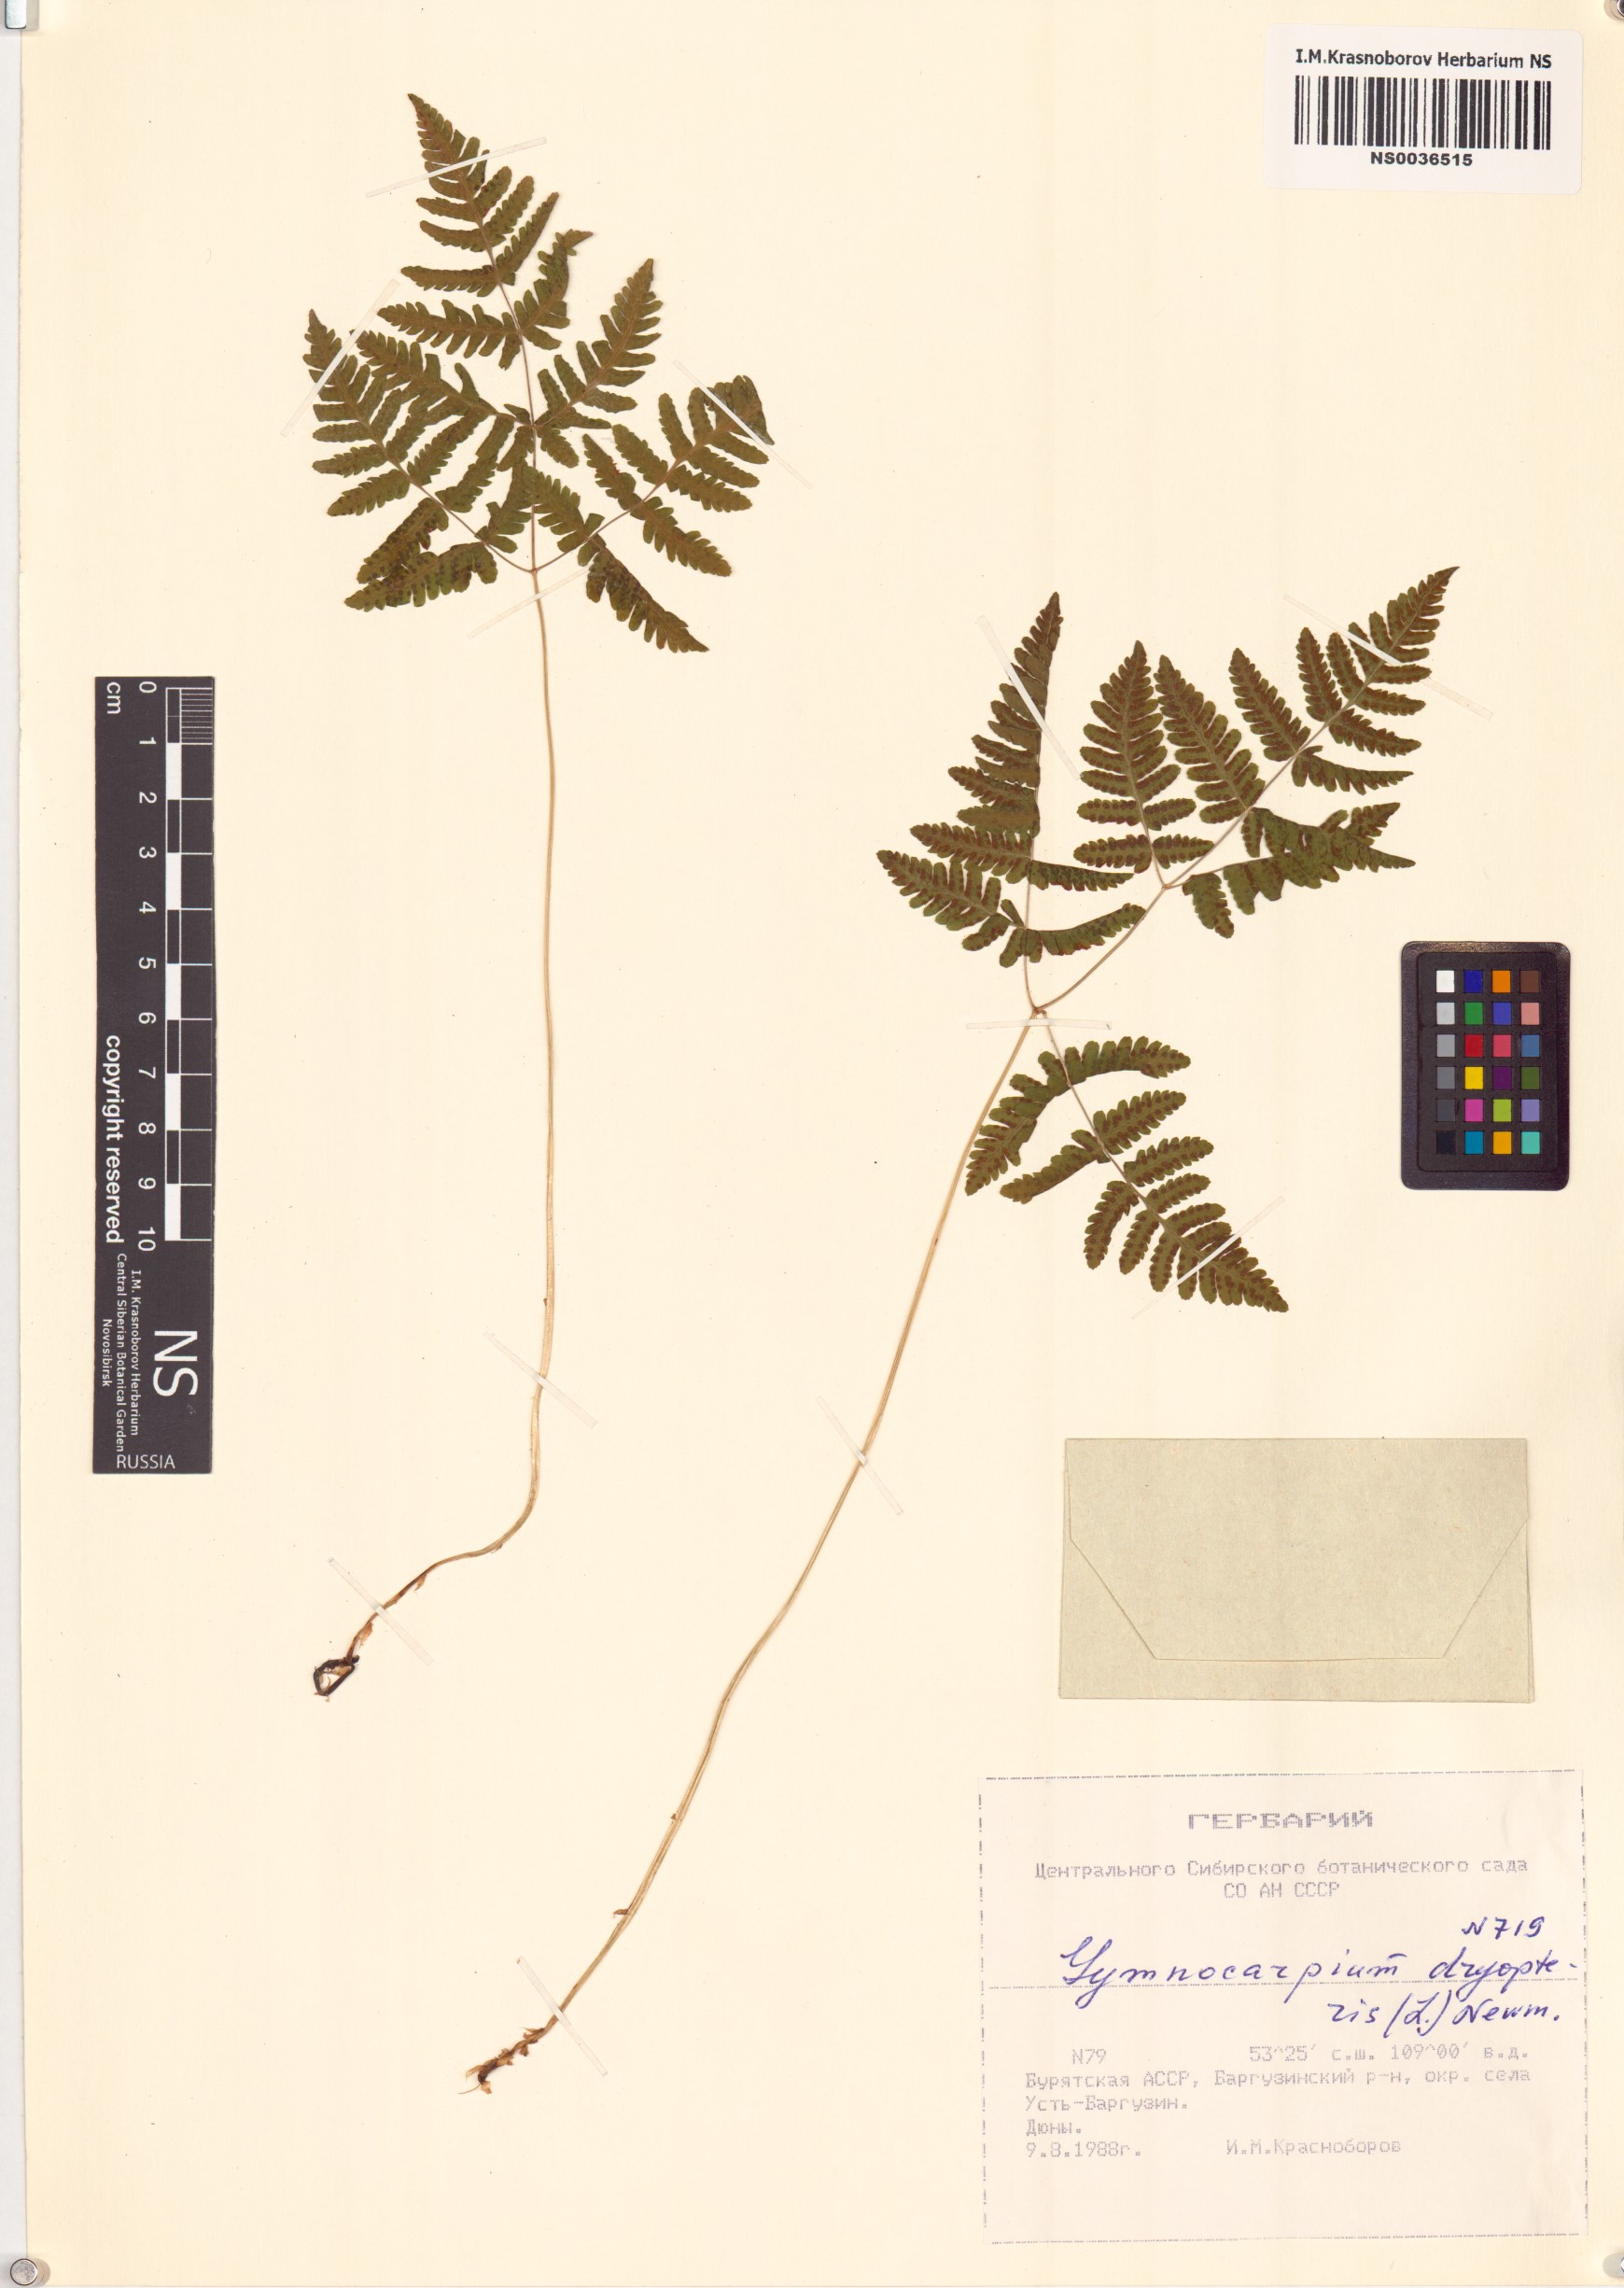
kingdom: Plantae
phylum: Tracheophyta
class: Polypodiopsida
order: Polypodiales
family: Cystopteridaceae
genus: Gymnocarpium
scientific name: Gymnocarpium dryopteris
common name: Oak fern
